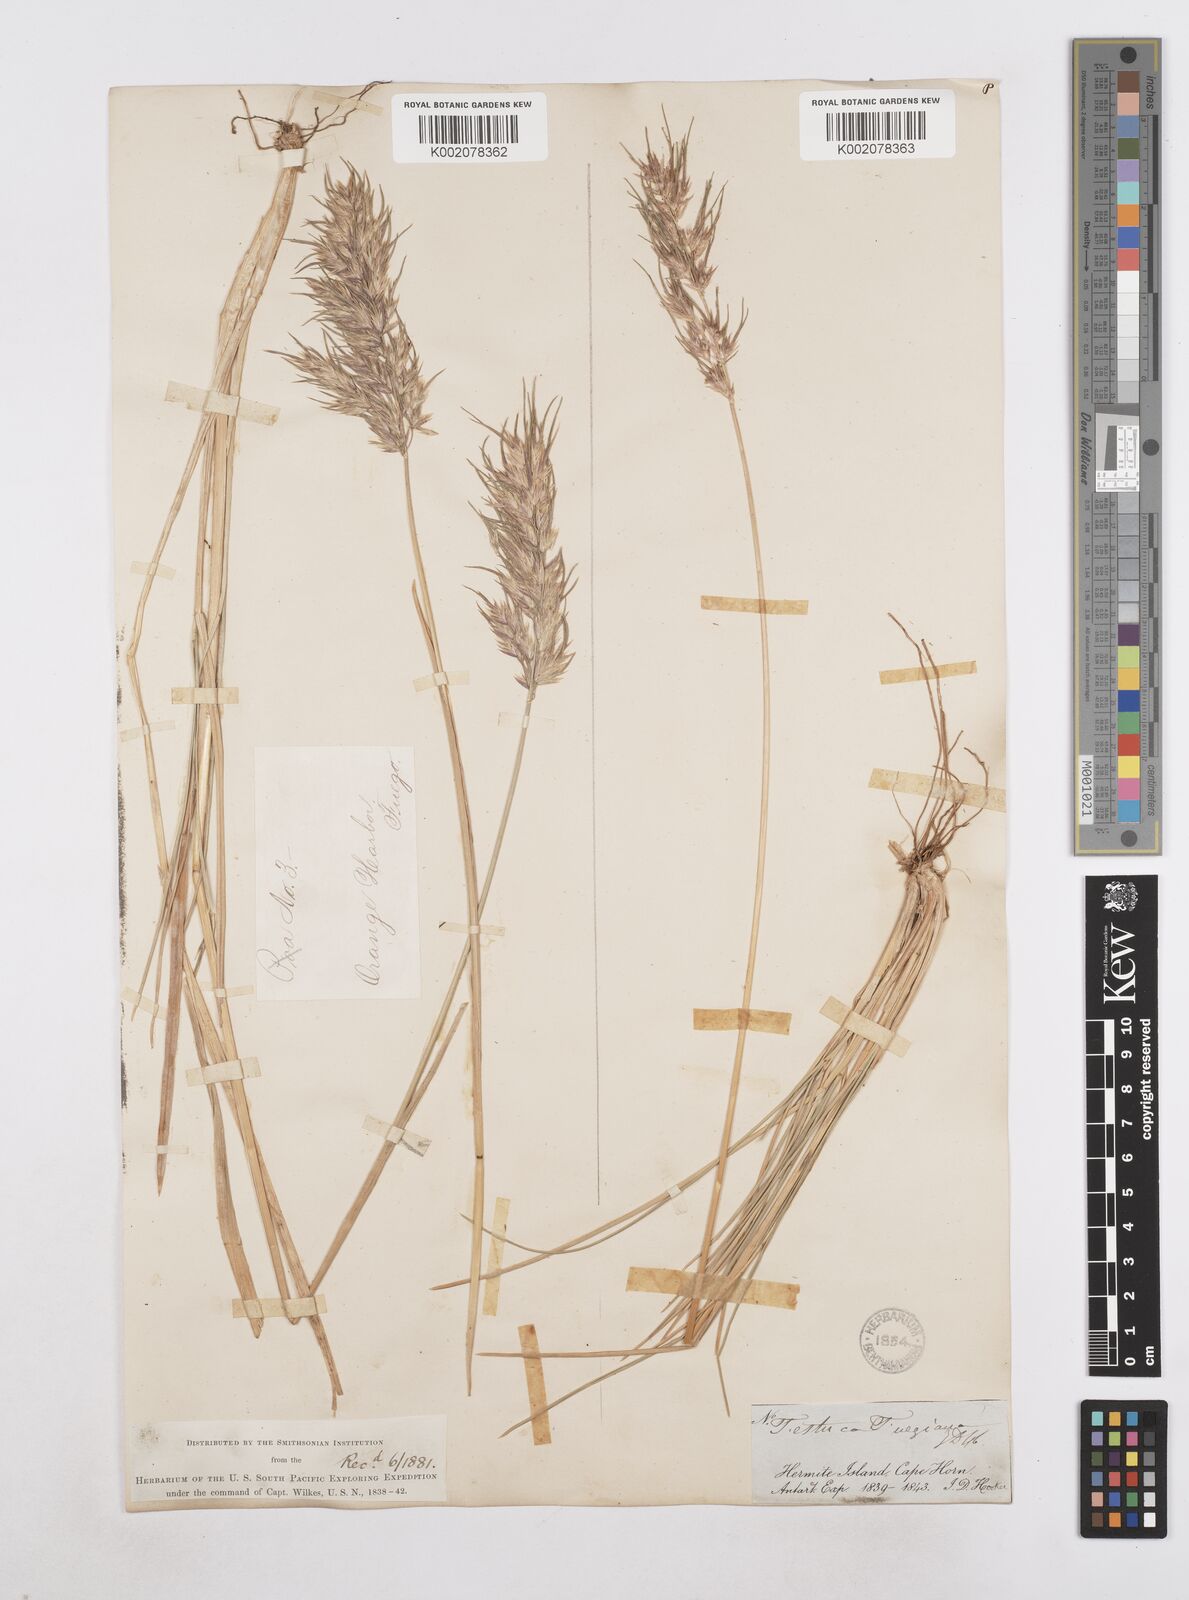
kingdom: Plantae
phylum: Tracheophyta
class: Liliopsida
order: Poales
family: Poaceae
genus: Poa
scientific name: Poa alopecurus
